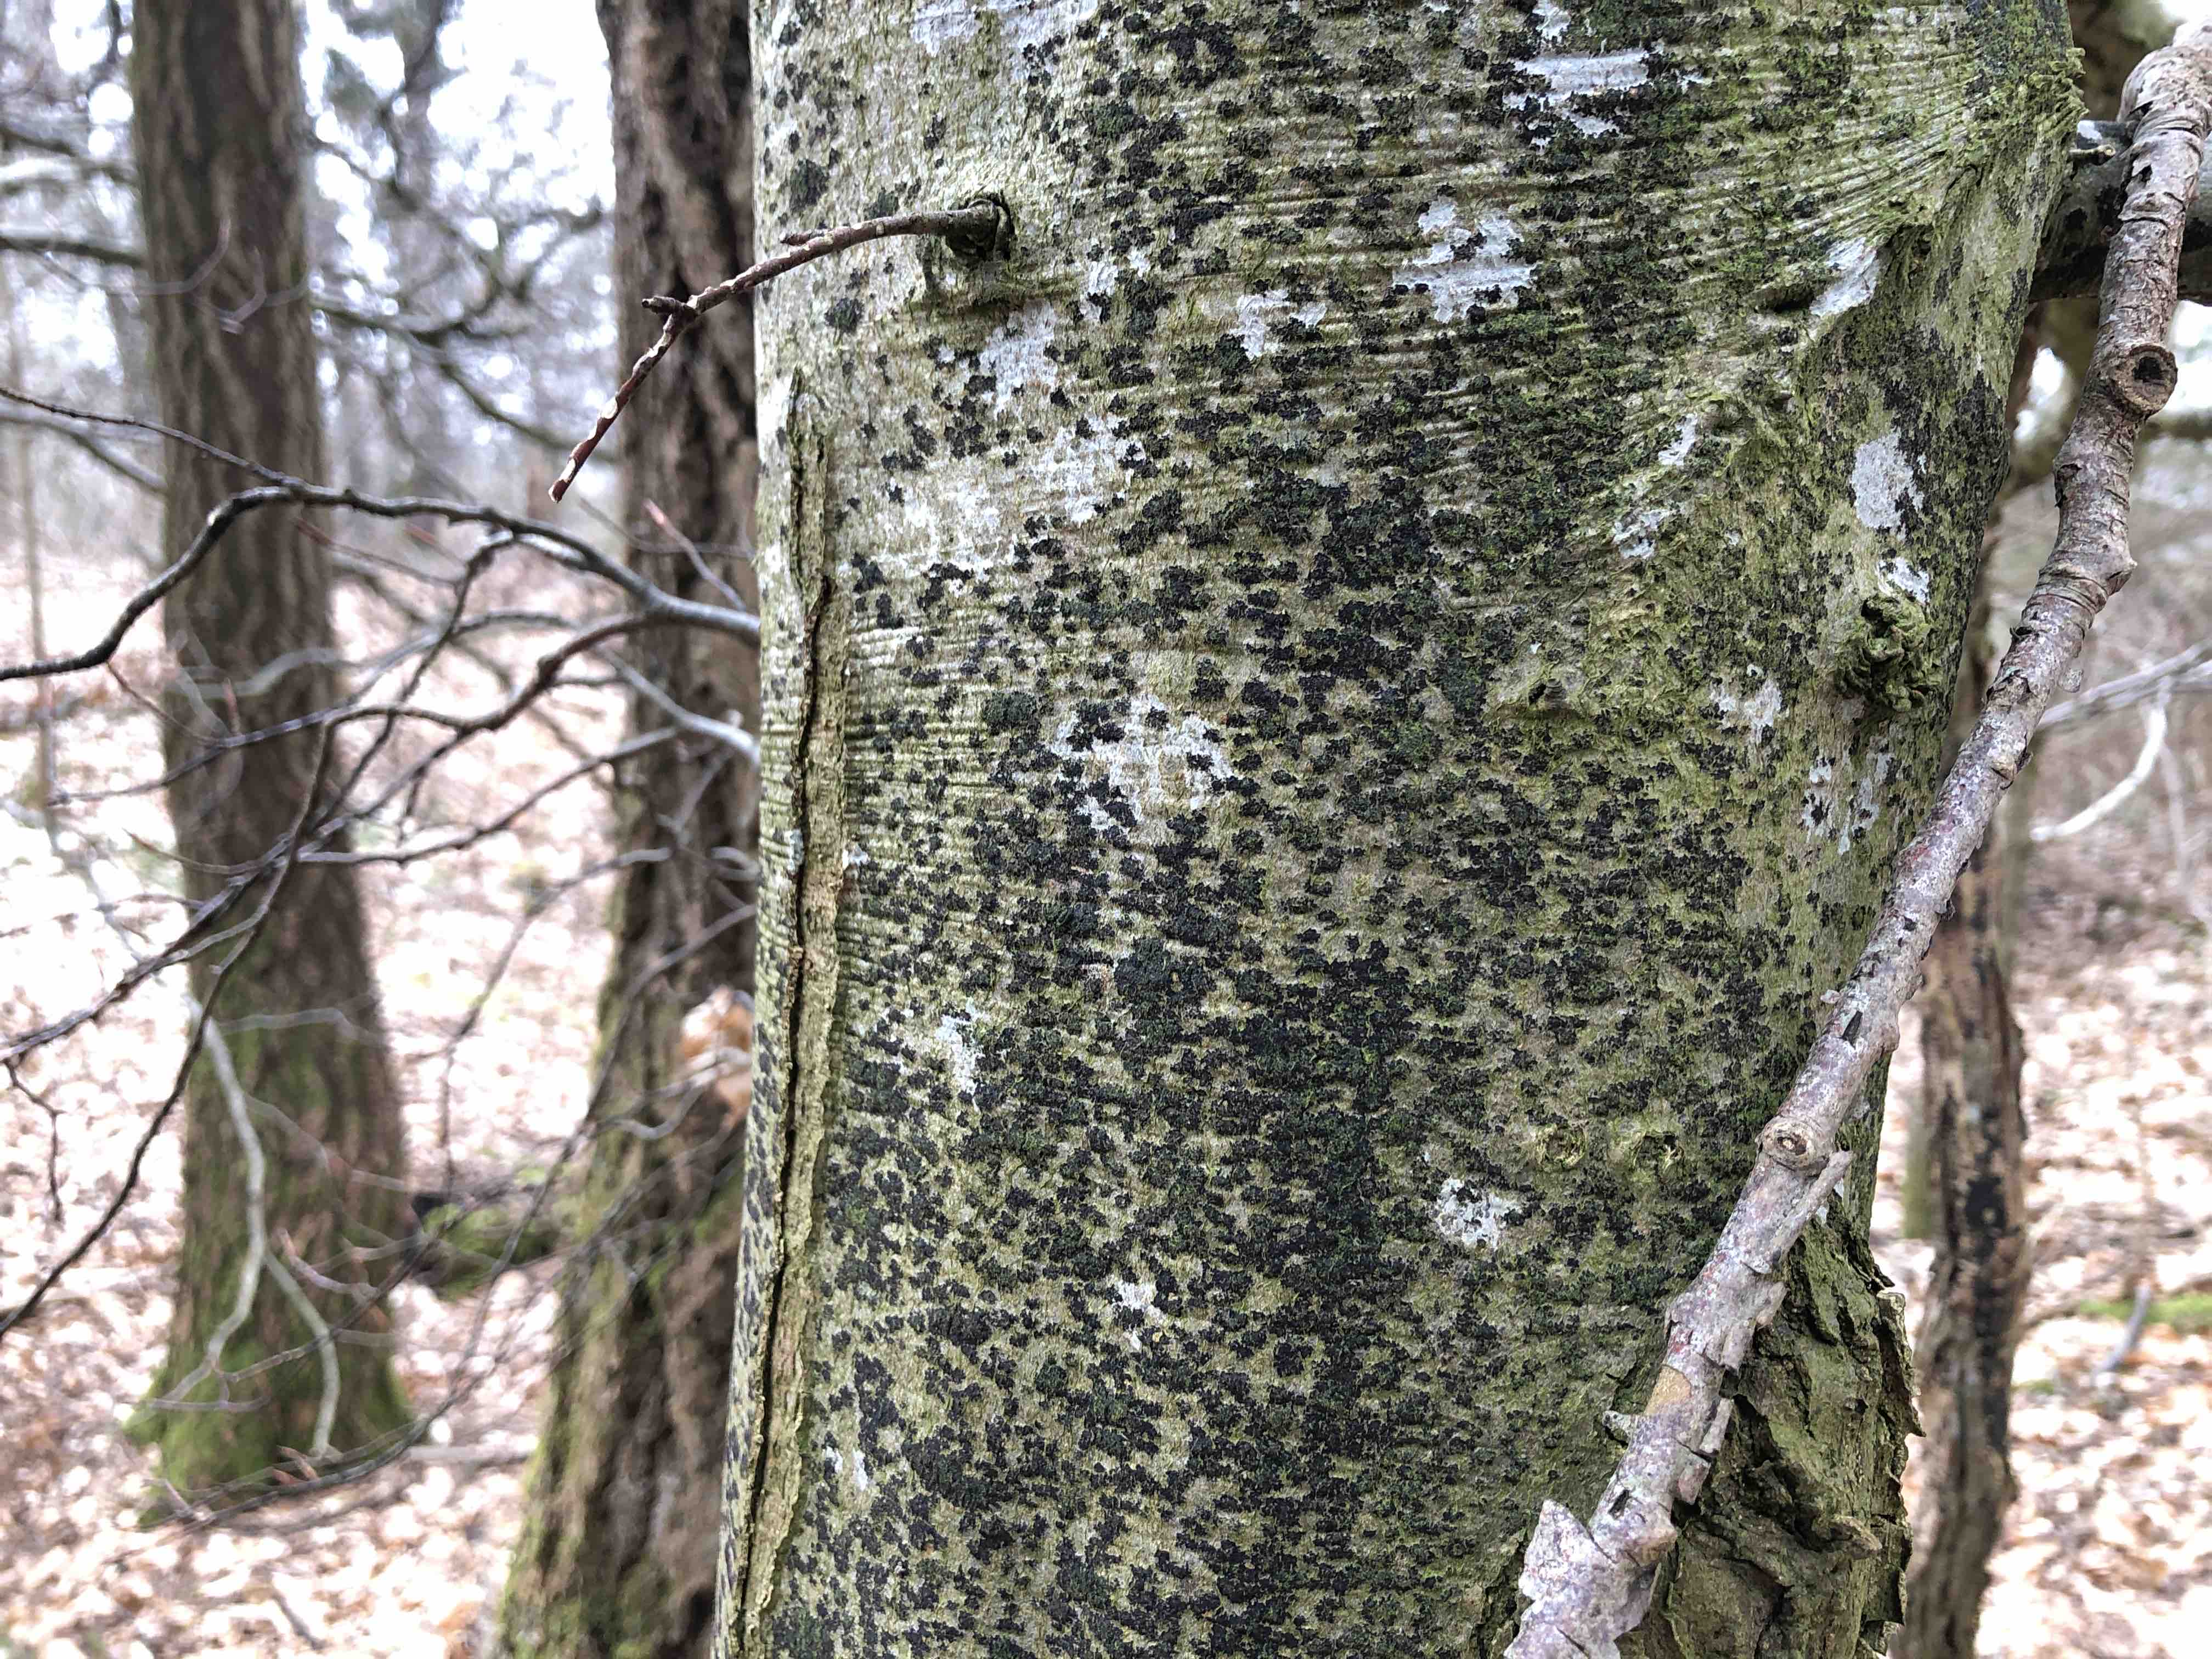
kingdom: Fungi
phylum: Ascomycota
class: Leotiomycetes
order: Rhytismatales
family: Ascodichaenaceae
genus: Ascodichaena
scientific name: Ascodichaena rugosa
